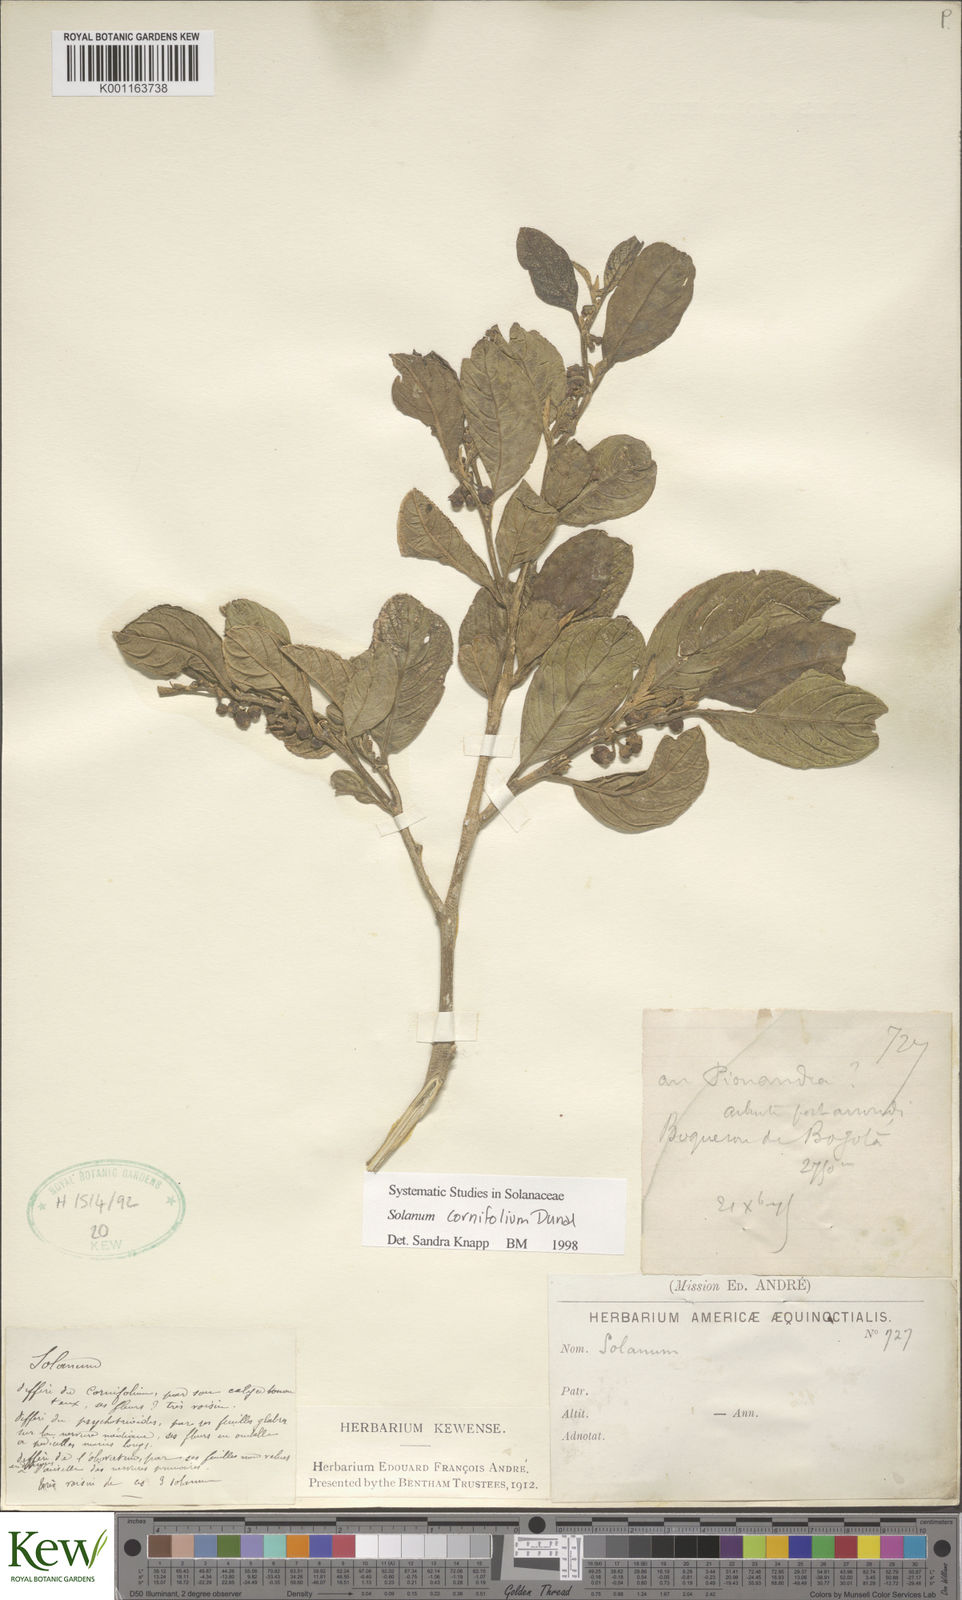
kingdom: Plantae
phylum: Tracheophyta
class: Magnoliopsida
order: Solanales
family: Solanaceae
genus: Solanum
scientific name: Solanum cornifolium
